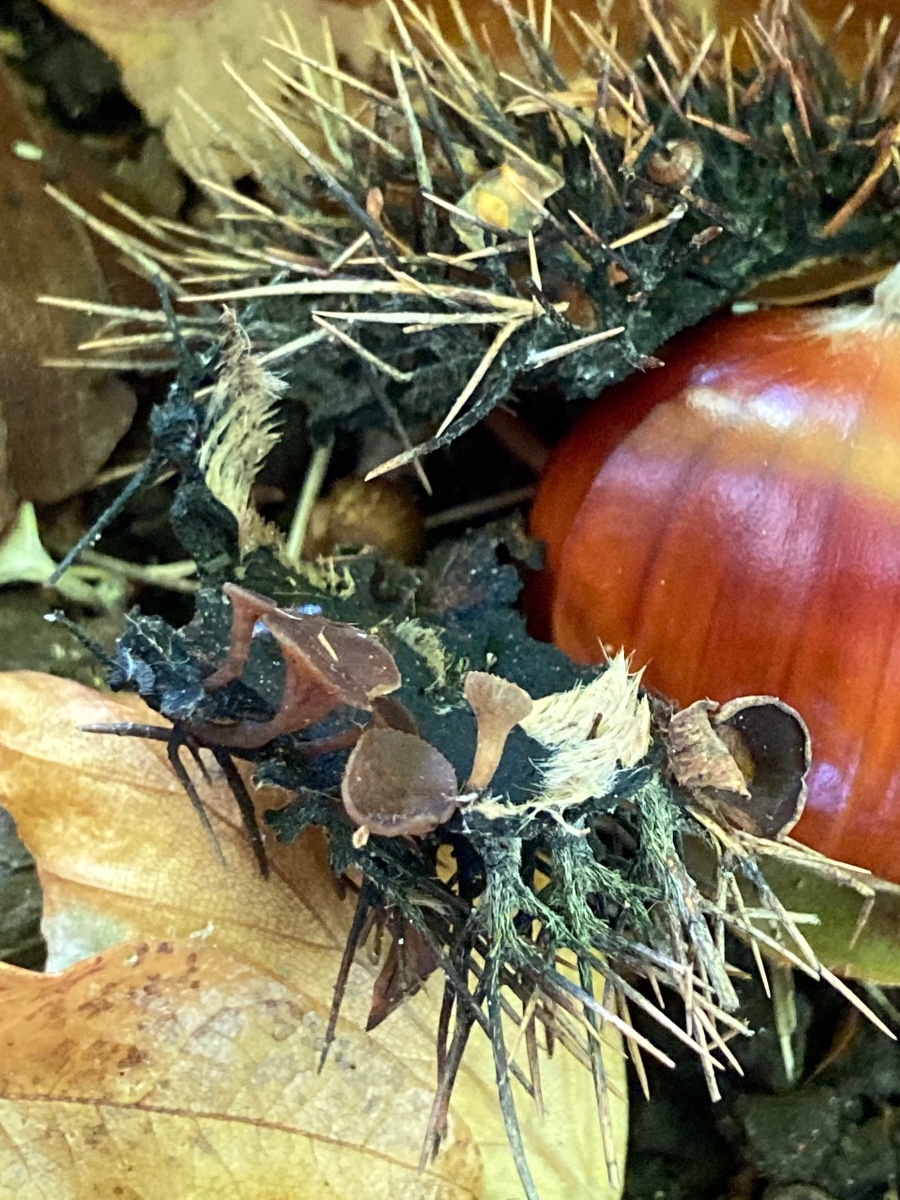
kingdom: Fungi
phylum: Ascomycota
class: Leotiomycetes
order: Helotiales
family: Rutstroemiaceae
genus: Lanzia
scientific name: Lanzia echinophila
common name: kastanie-brunskive
